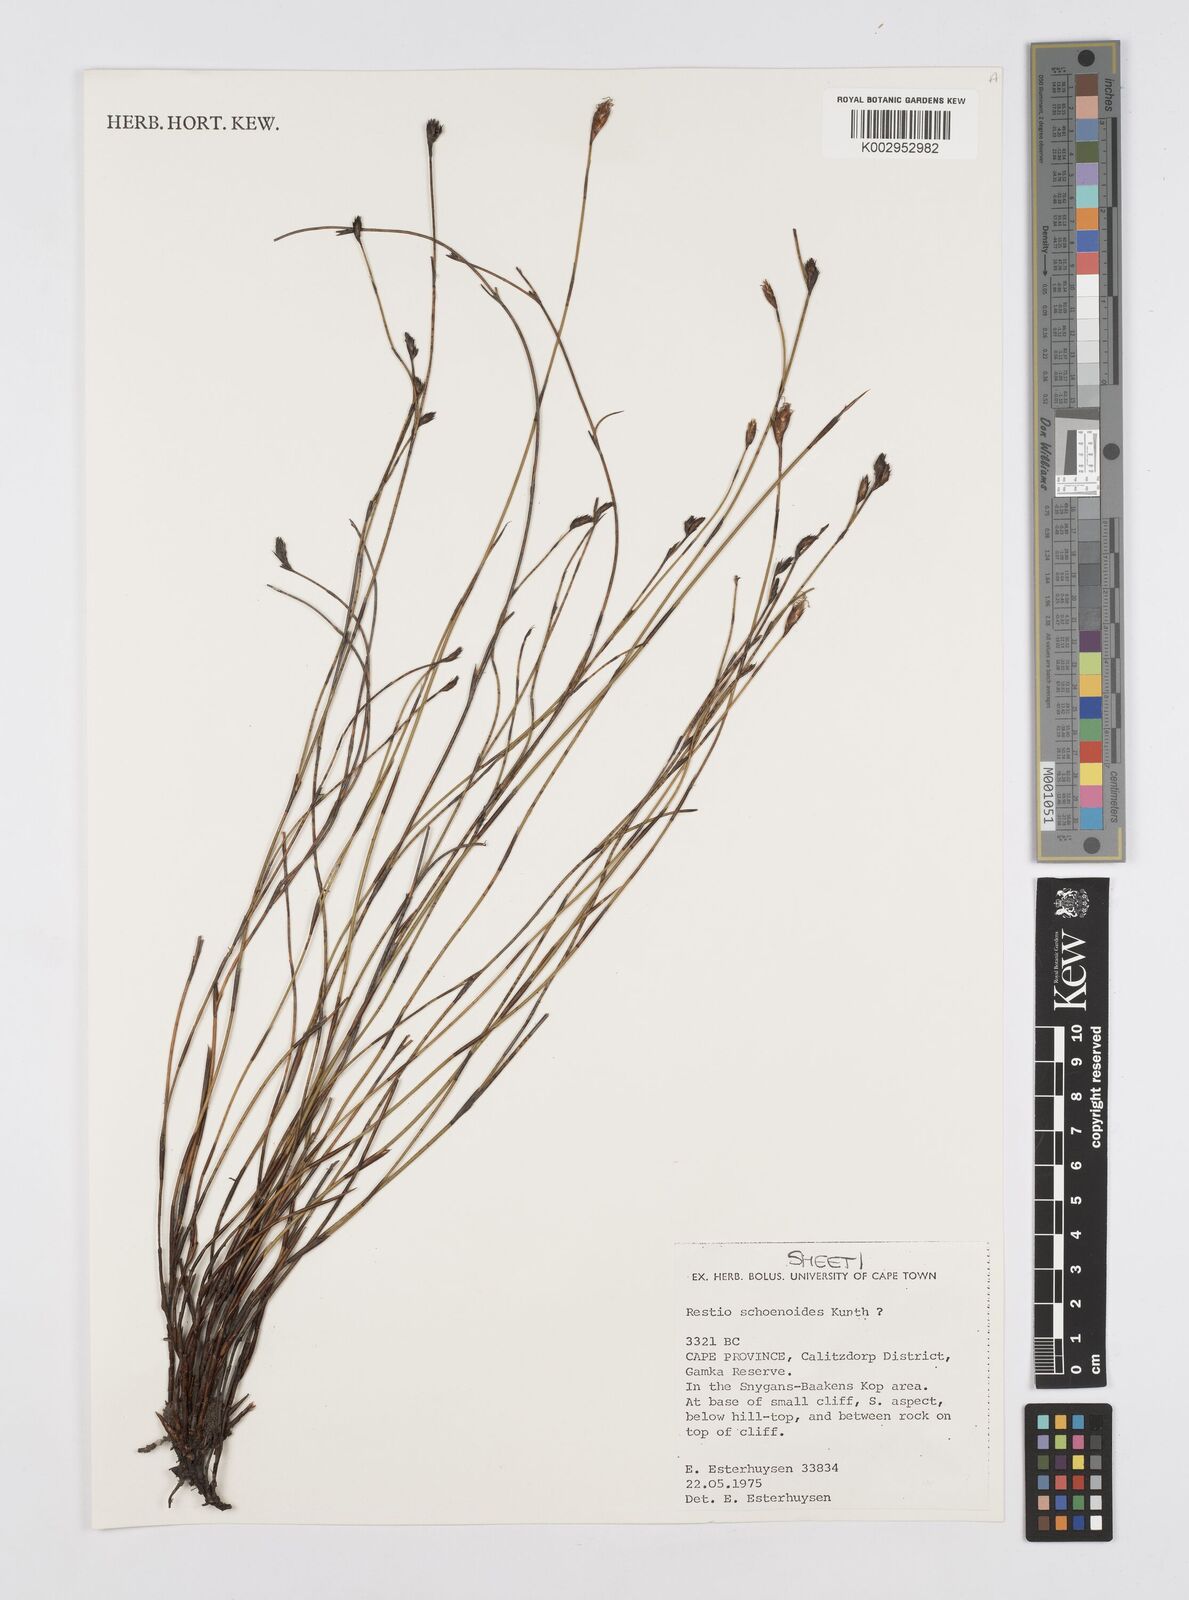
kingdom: Plantae
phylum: Tracheophyta
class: Liliopsida
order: Poales
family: Restionaceae
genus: Restio
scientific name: Restio schoenoides
